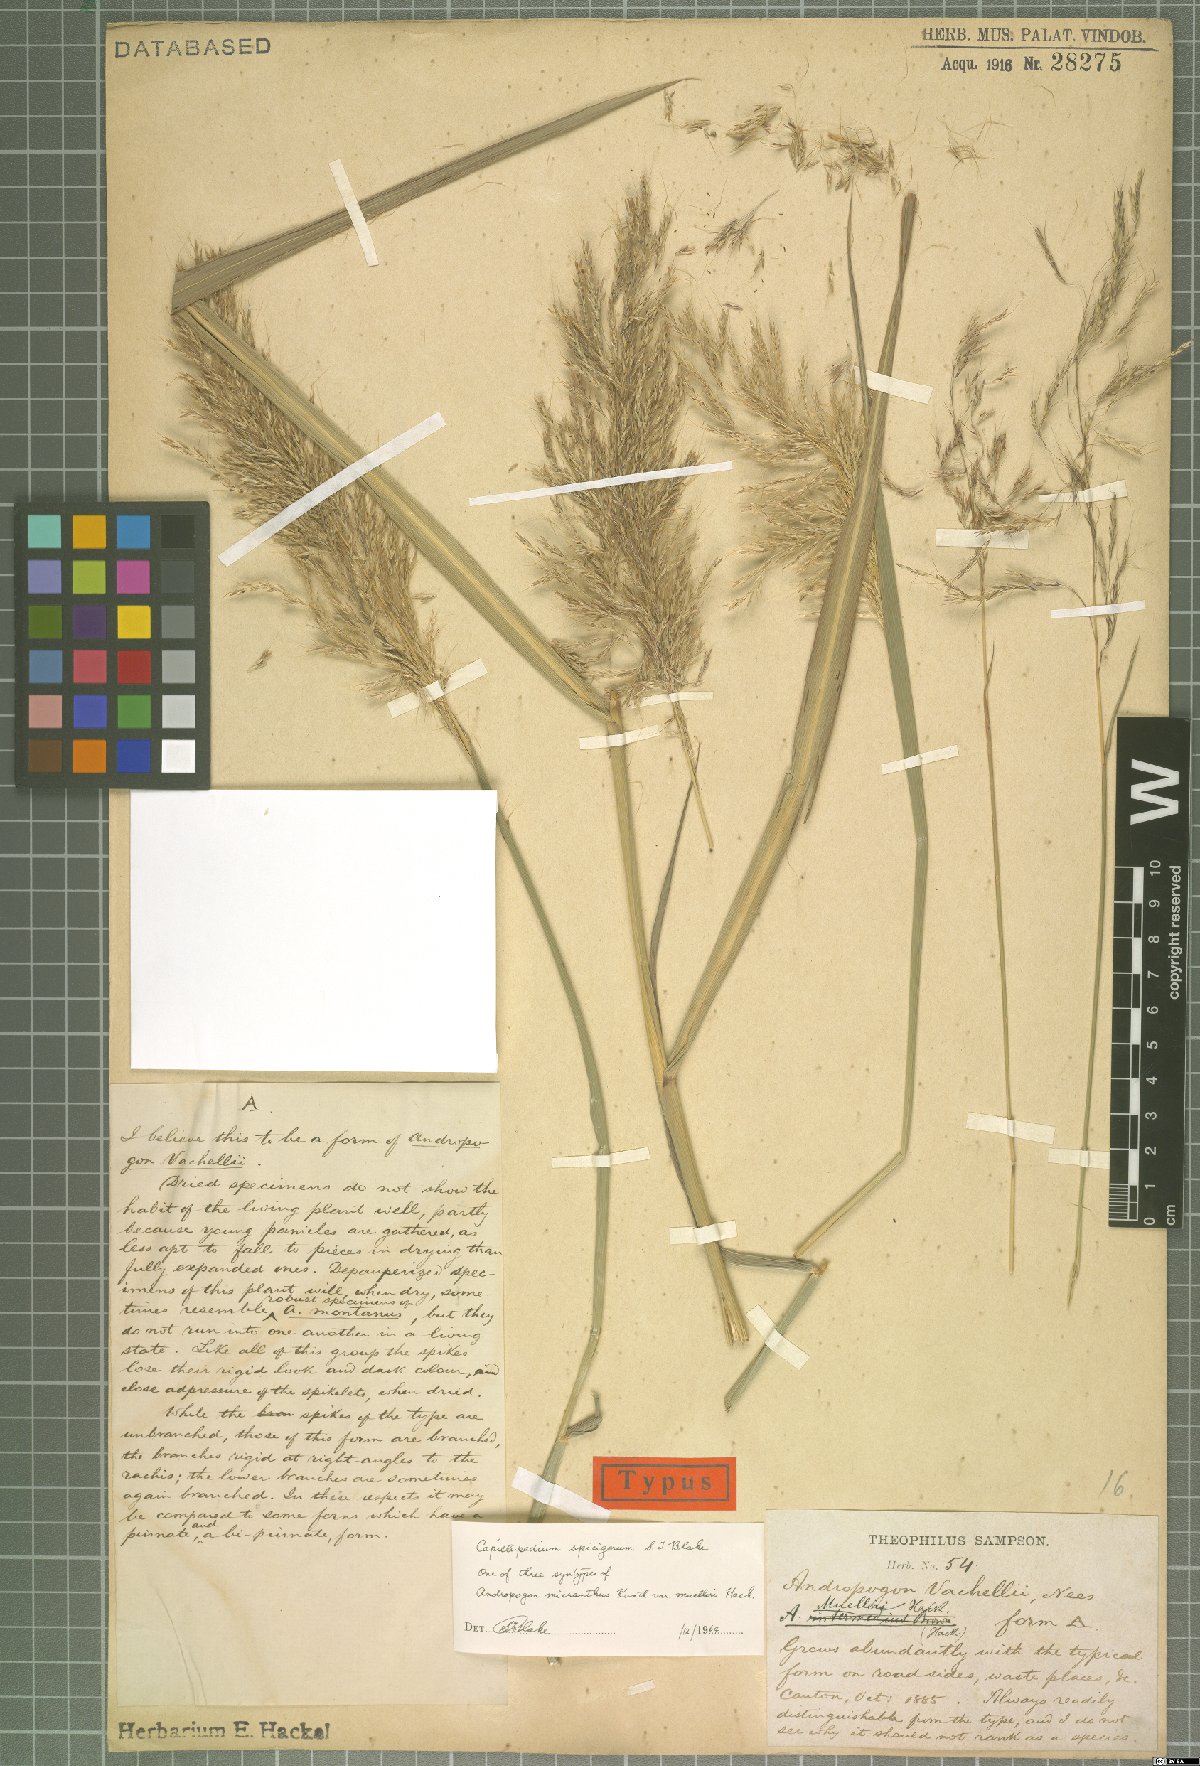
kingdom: Plantae
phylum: Tracheophyta
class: Liliopsida
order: Poales
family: Poaceae
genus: Capillipedium
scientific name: Capillipedium spicigerum
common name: Scented-top grass
